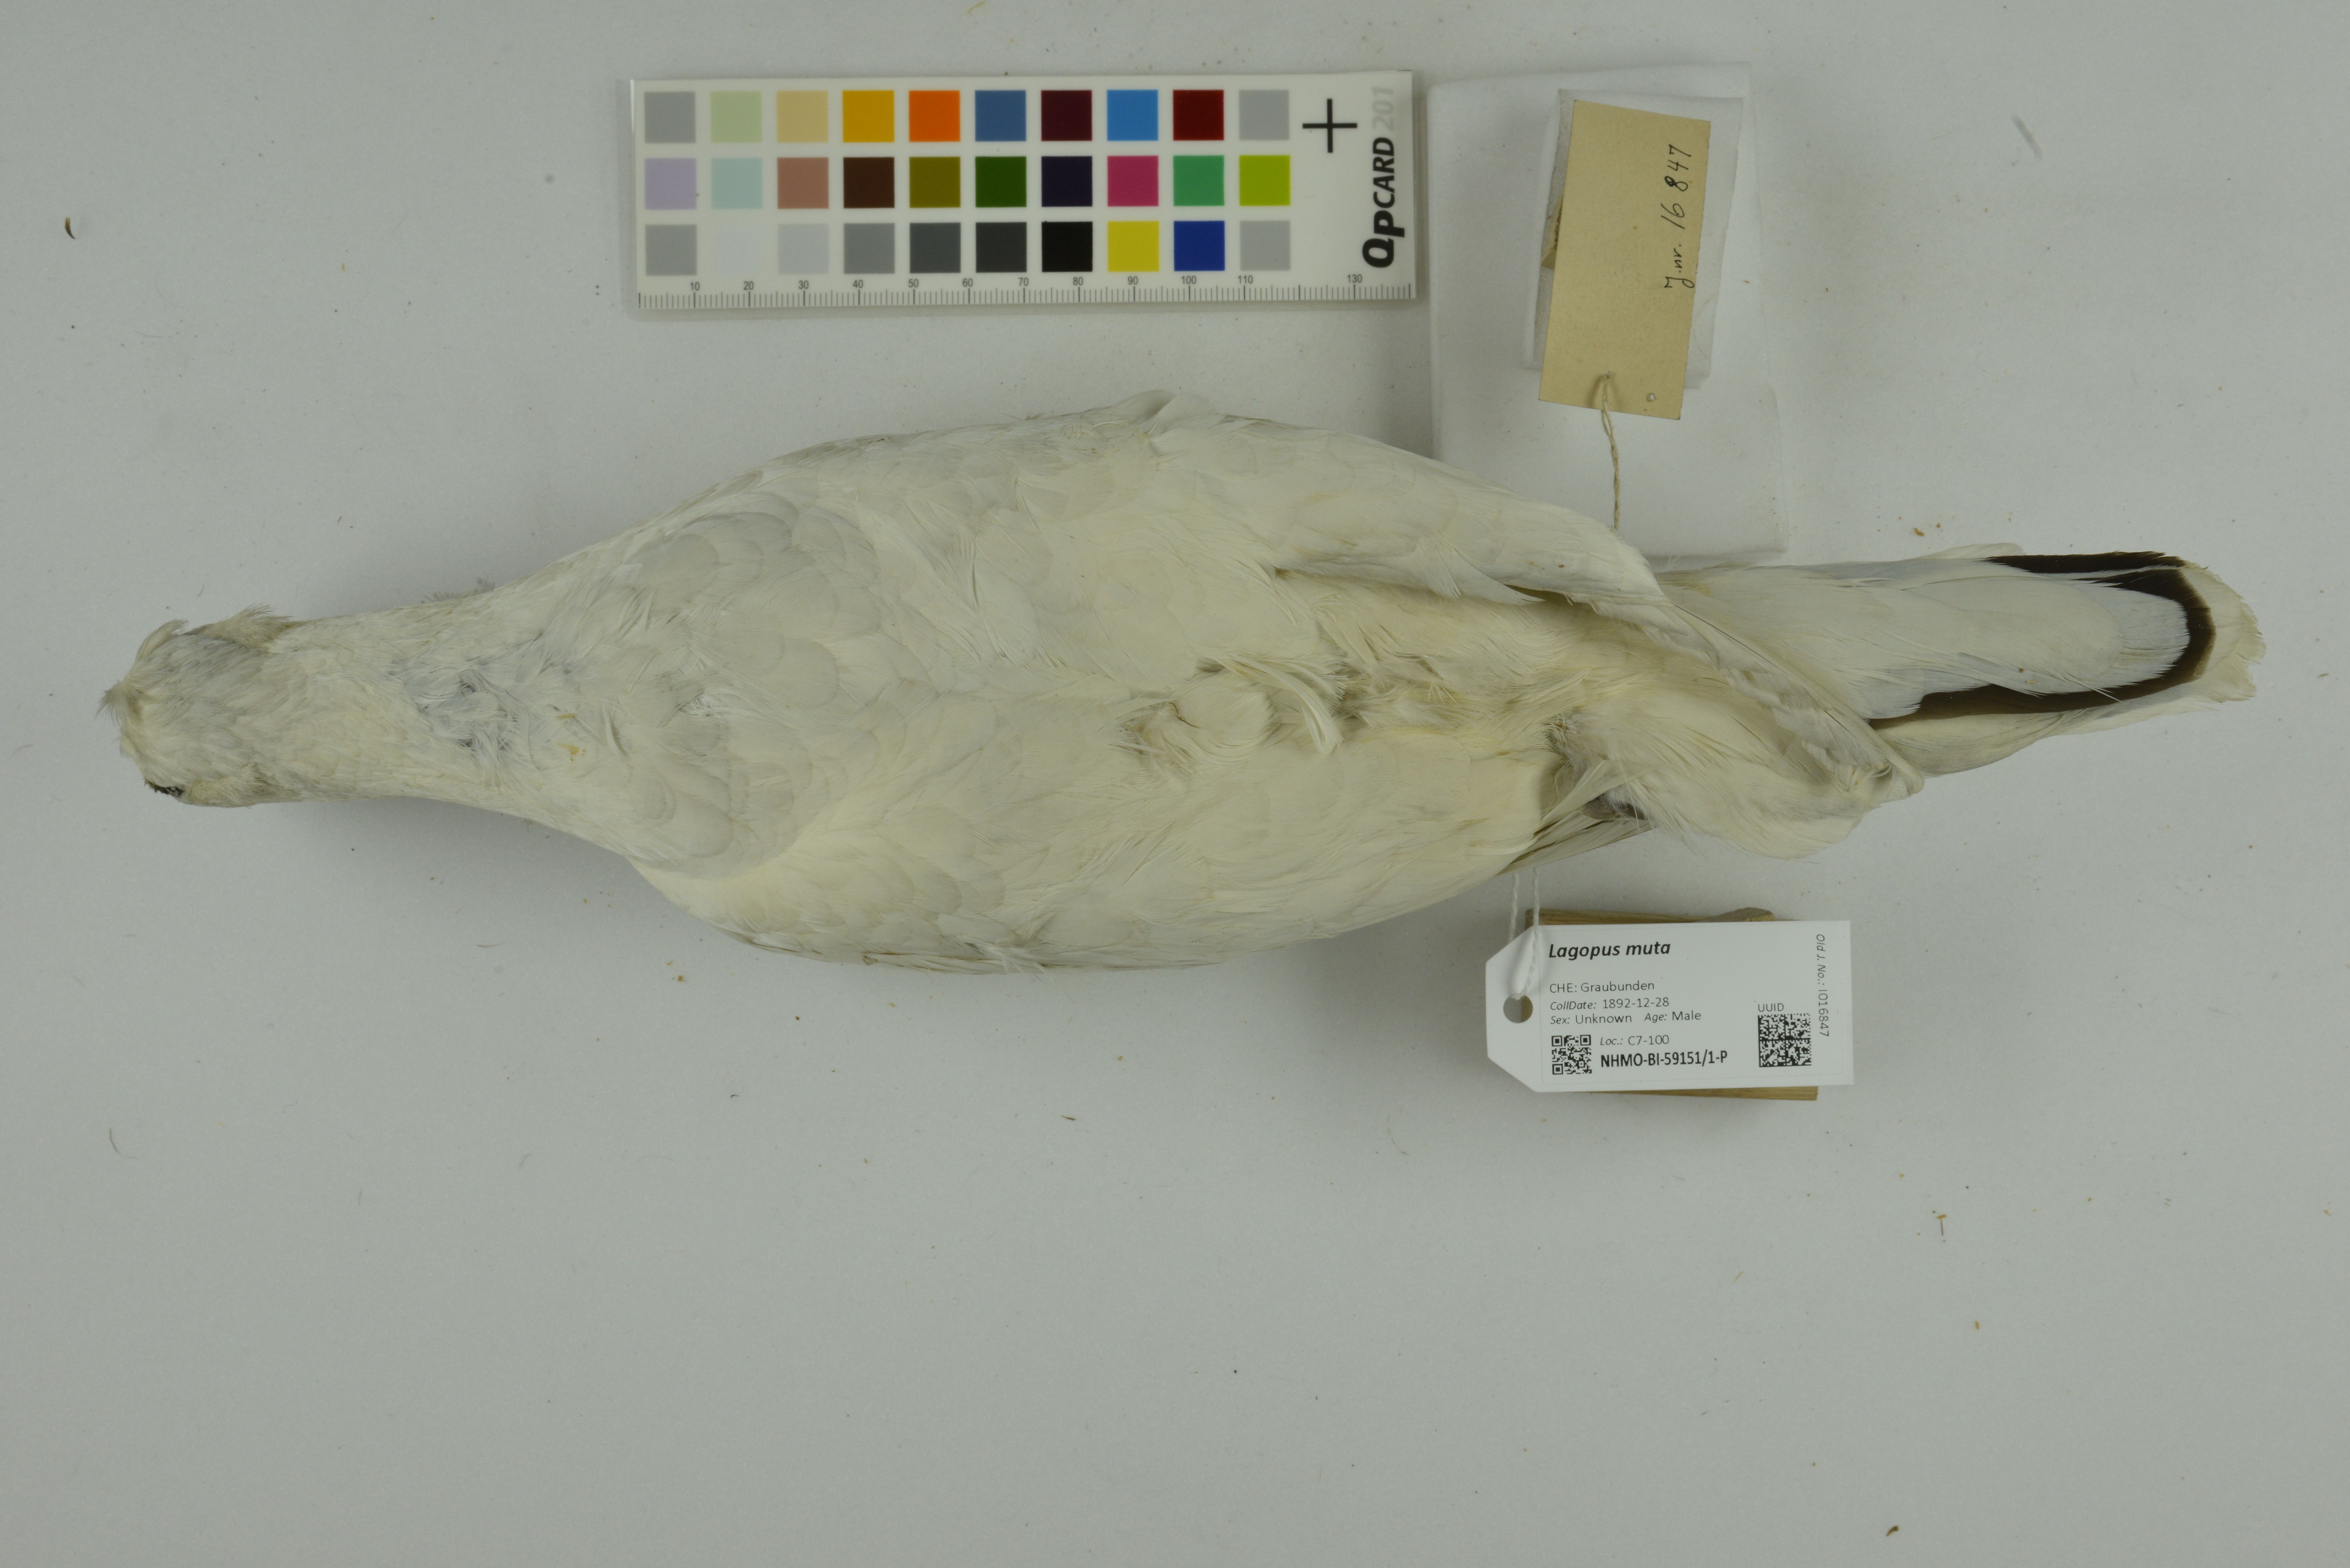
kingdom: Animalia
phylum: Chordata
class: Aves
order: Galliformes
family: Phasianidae
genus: Lagopus
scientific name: Lagopus muta
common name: Rock ptarmigan
